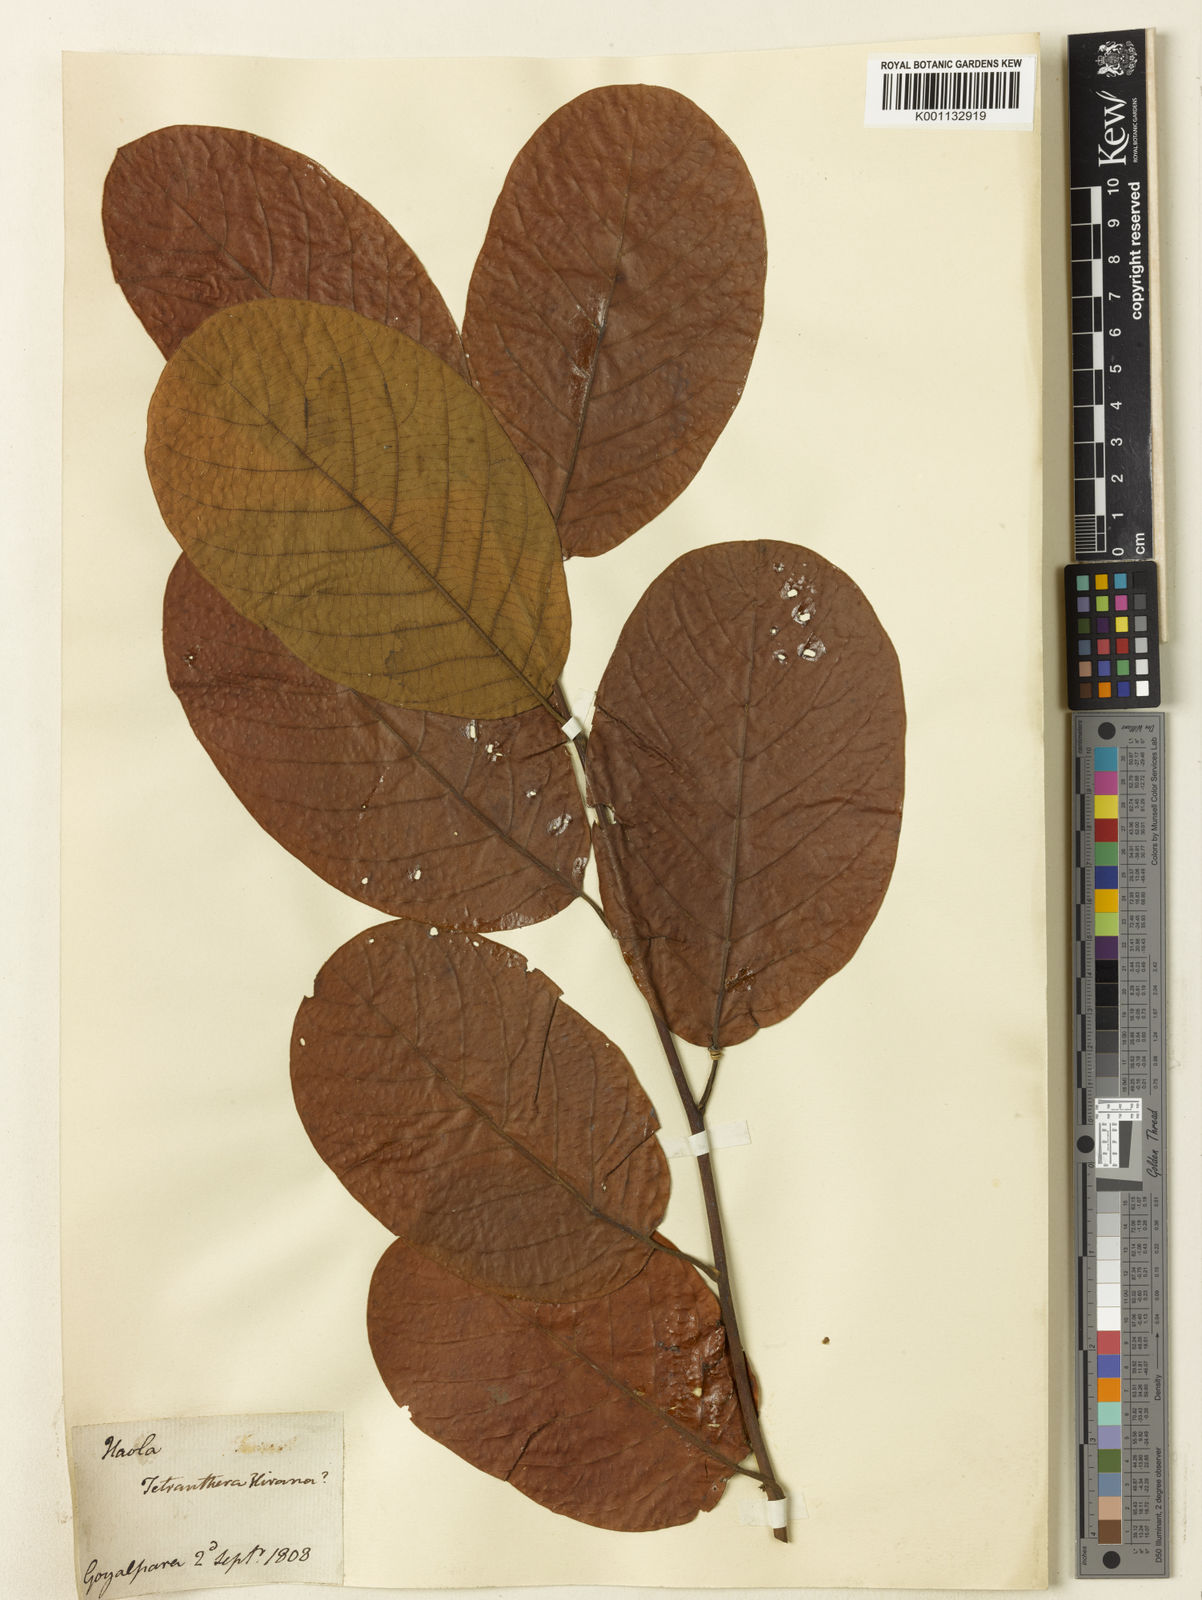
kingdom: Plantae
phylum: Tracheophyta
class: Magnoliopsida
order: Laurales
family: Lauraceae
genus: Litsea
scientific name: Litsea
